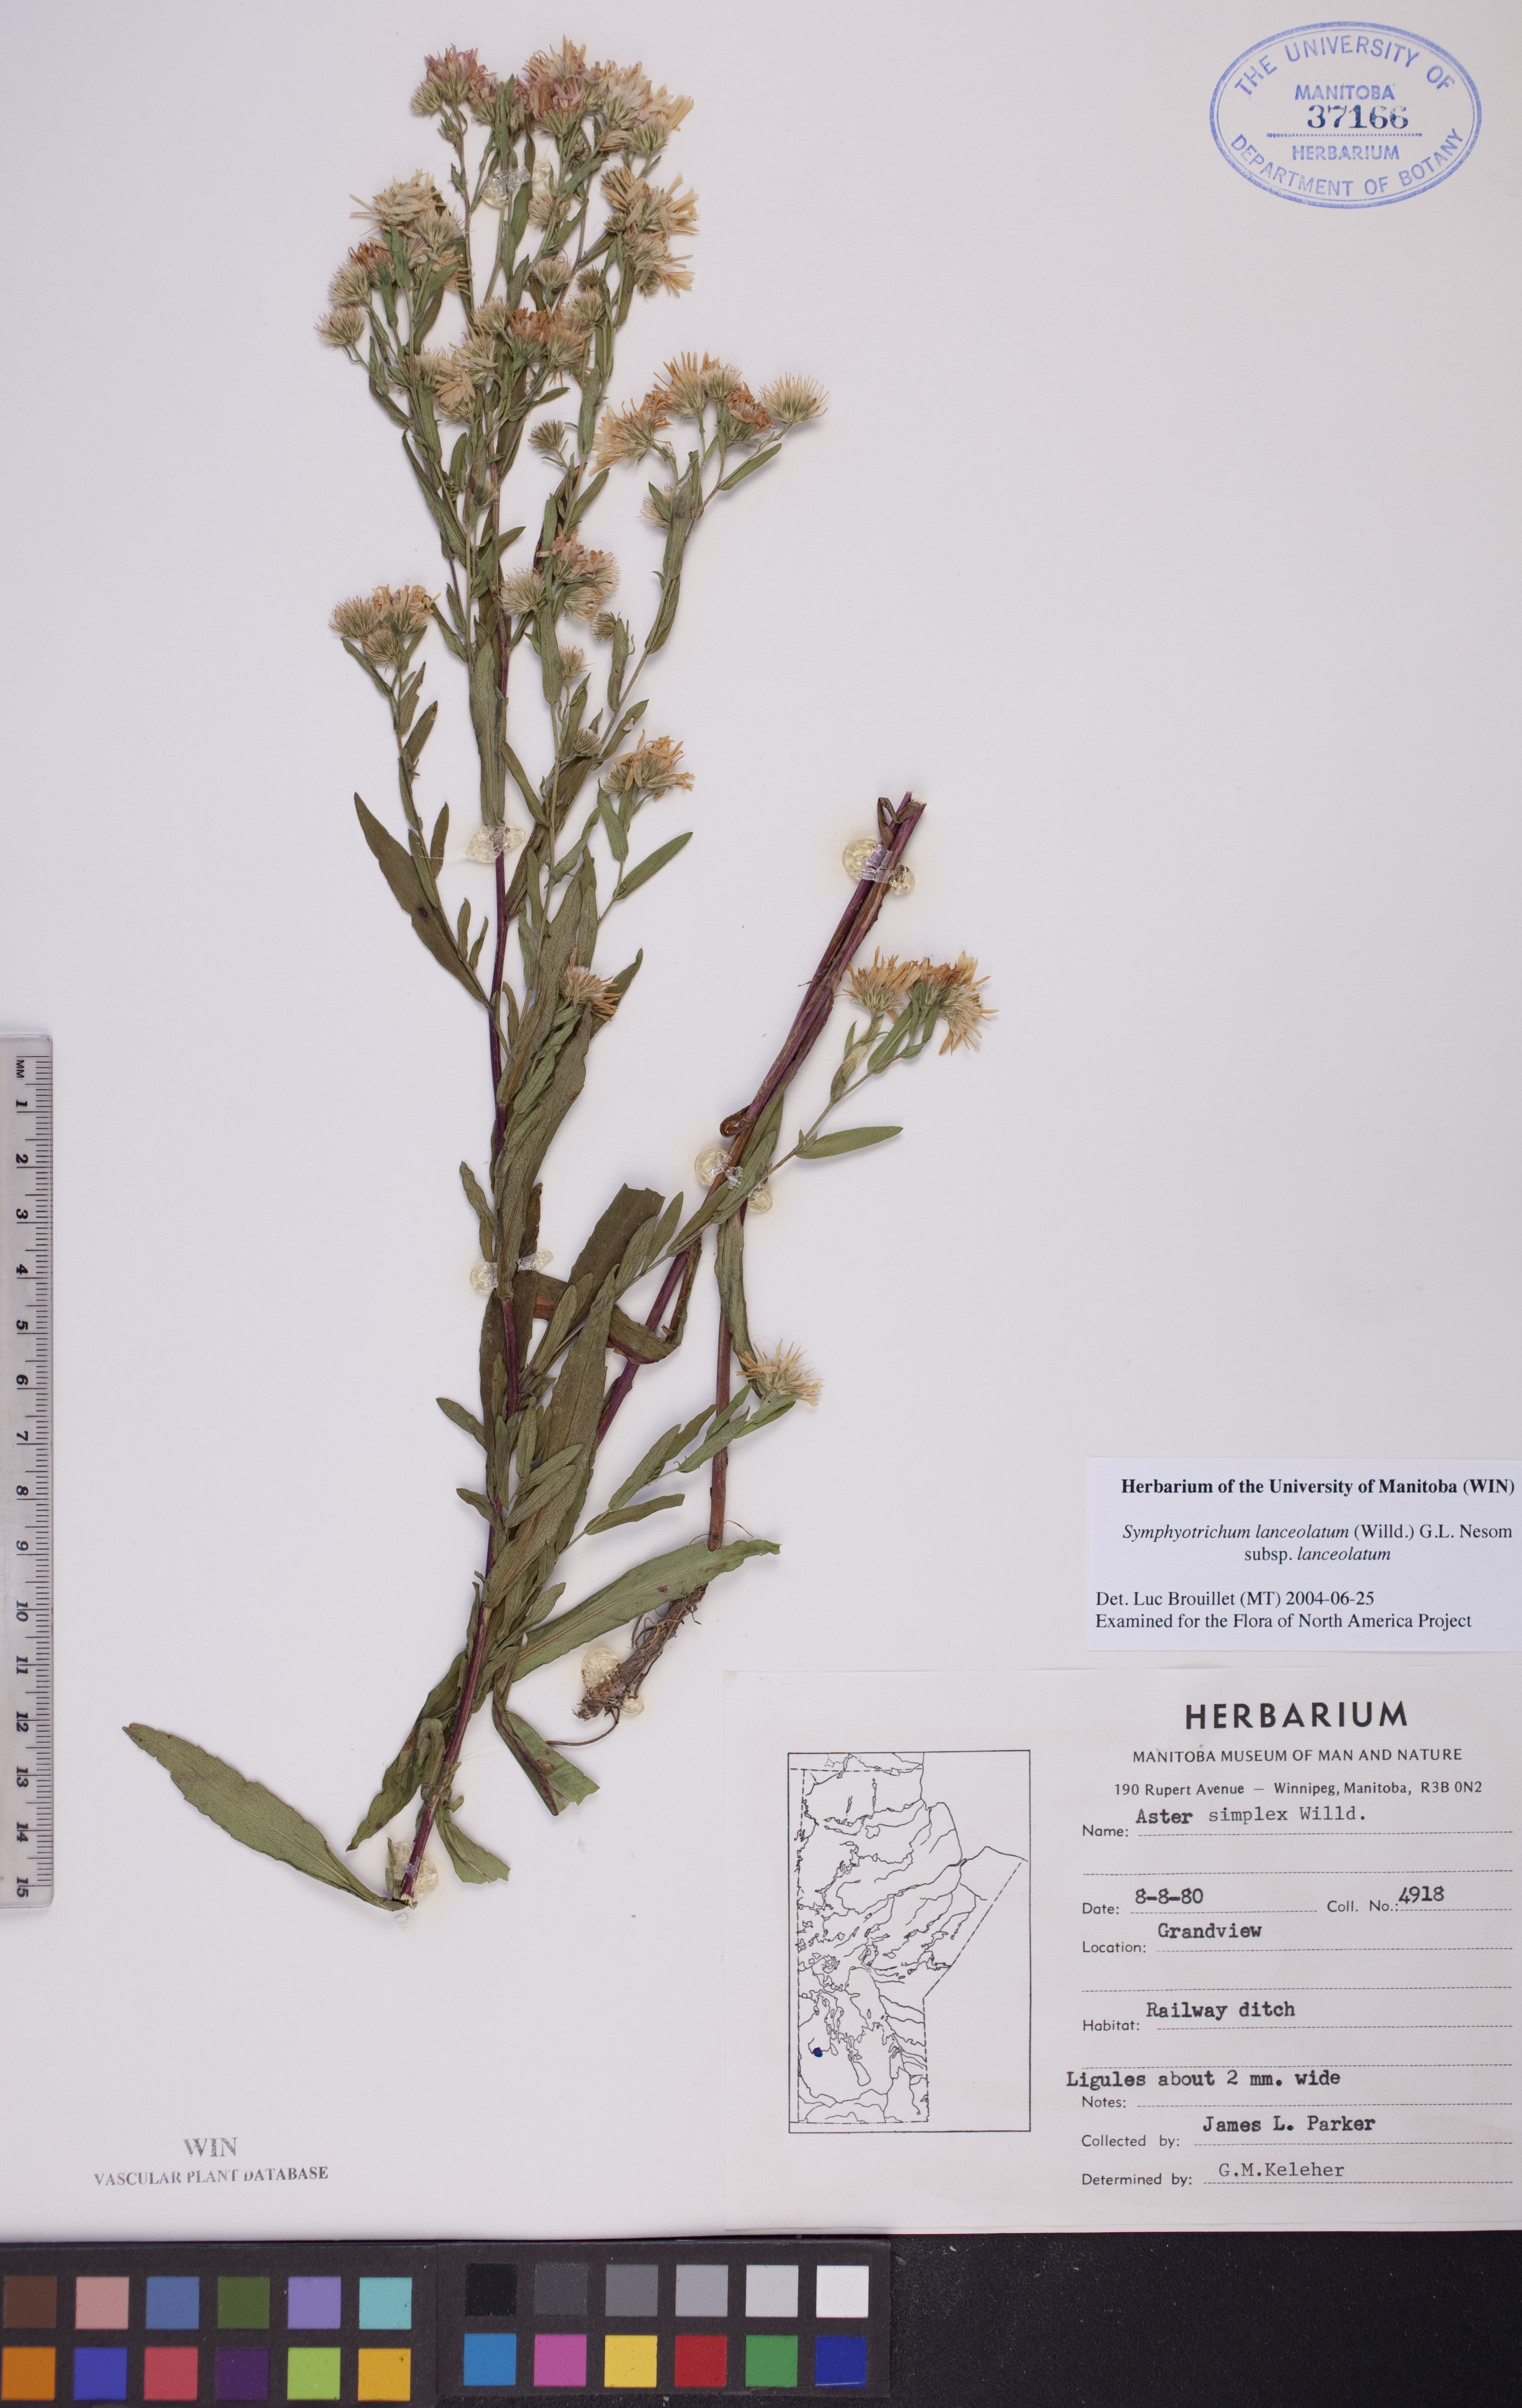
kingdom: Plantae
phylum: Tracheophyta
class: Magnoliopsida
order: Asterales
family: Asteraceae
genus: Symphyotrichum
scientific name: Symphyotrichum lanceolatum
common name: Panicled aster
